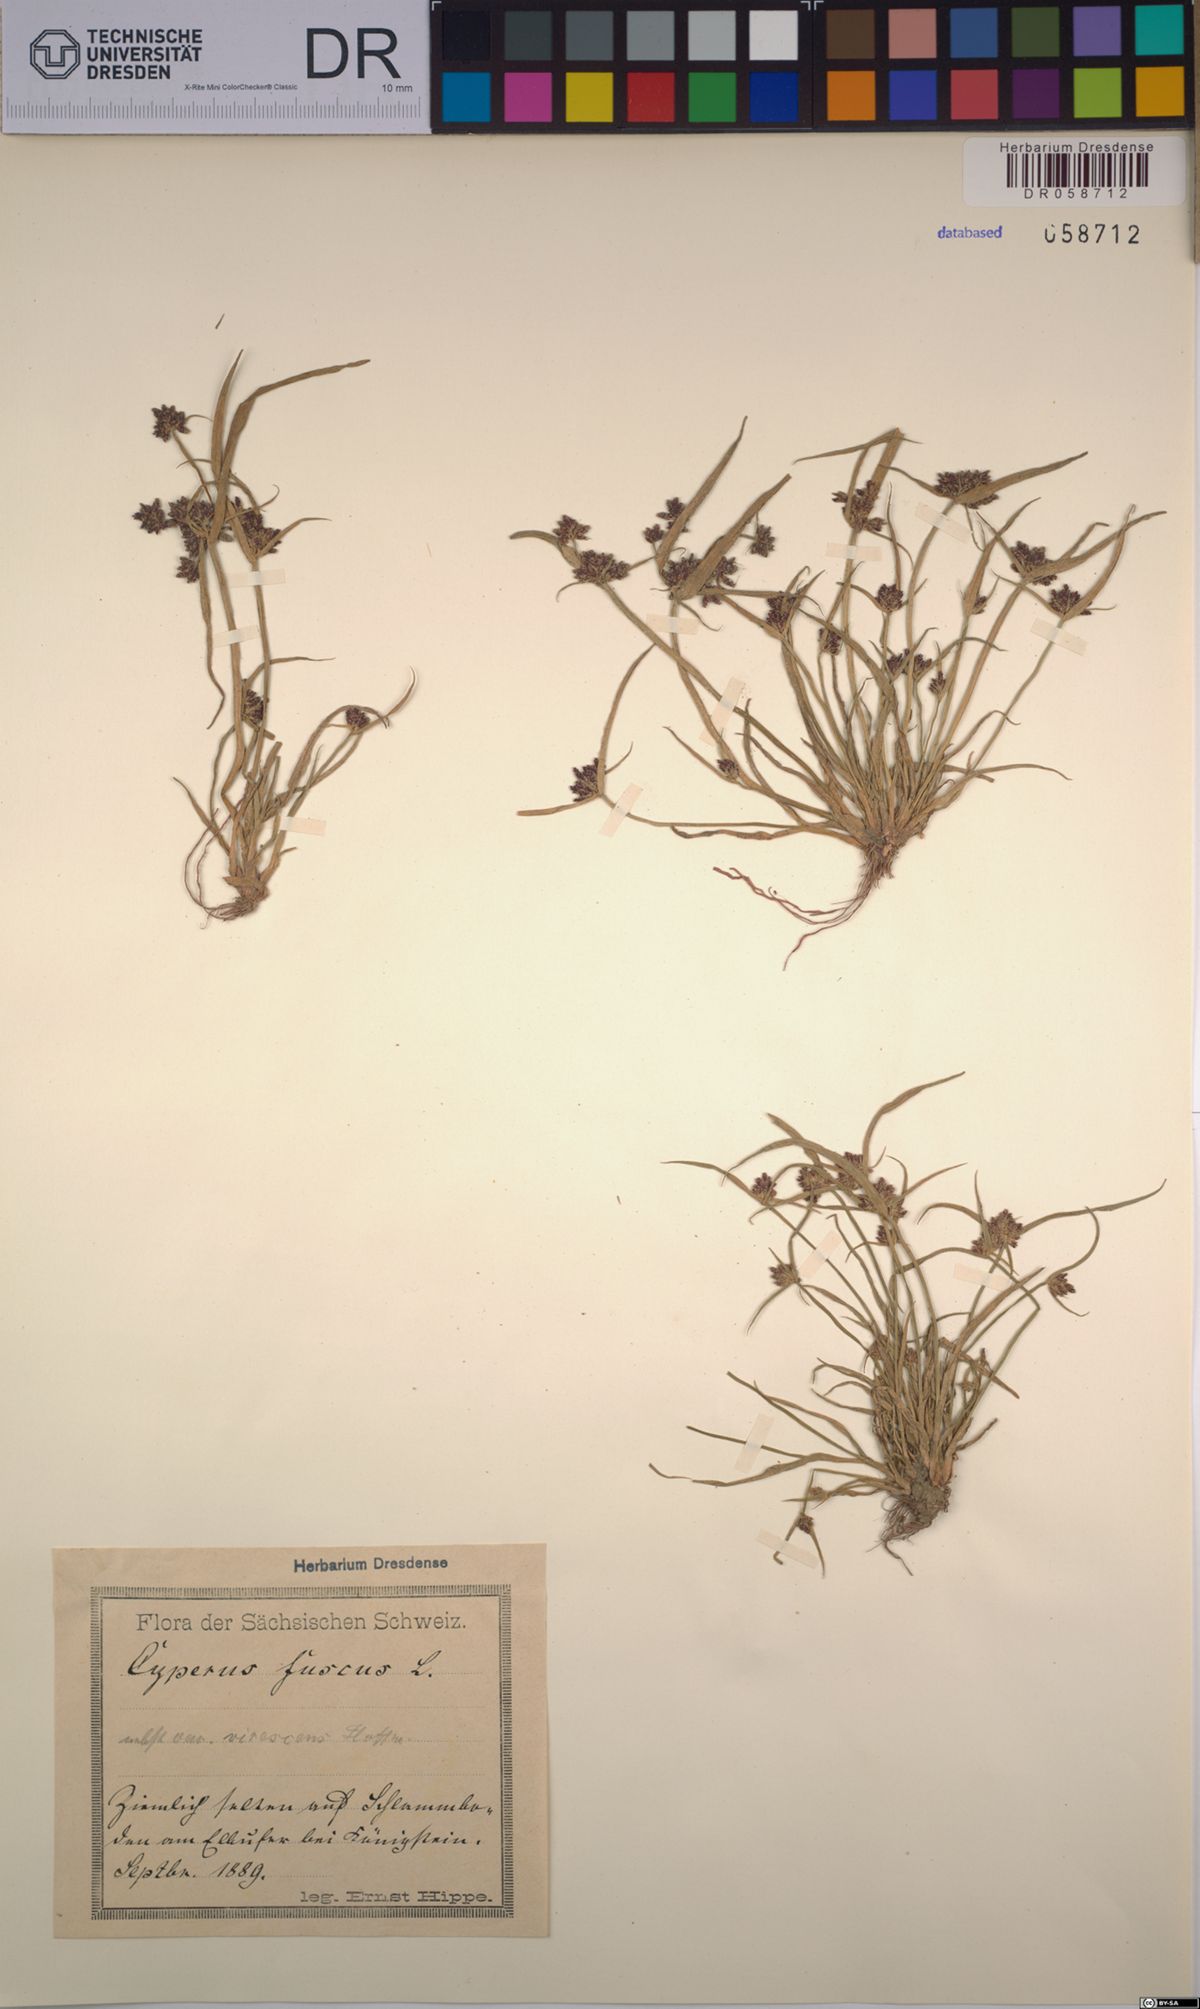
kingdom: Plantae
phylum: Tracheophyta
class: Liliopsida
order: Poales
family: Cyperaceae
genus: Cyperus
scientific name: Cyperus fuscus
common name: Brown galingale
